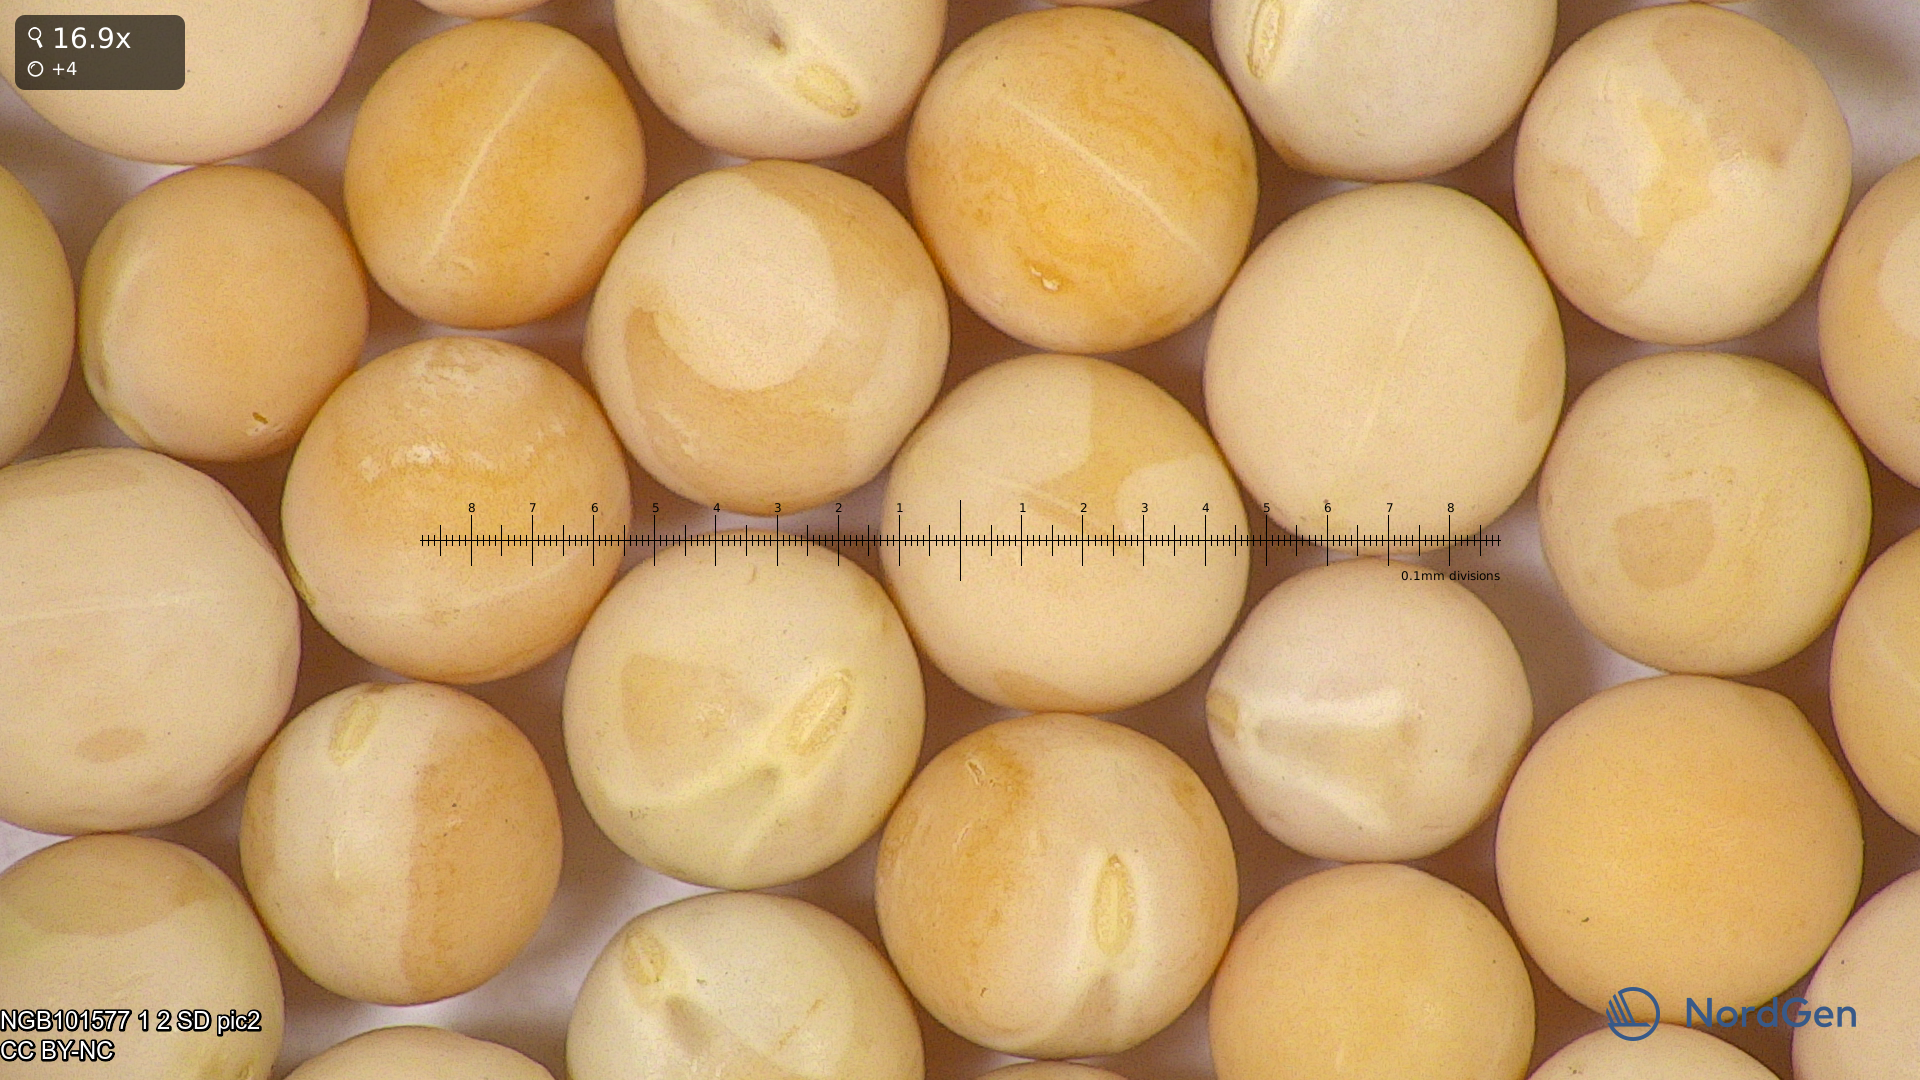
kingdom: Plantae
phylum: Tracheophyta
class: Magnoliopsida
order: Fabales
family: Fabaceae
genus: Lathyrus
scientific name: Lathyrus oleraceus
